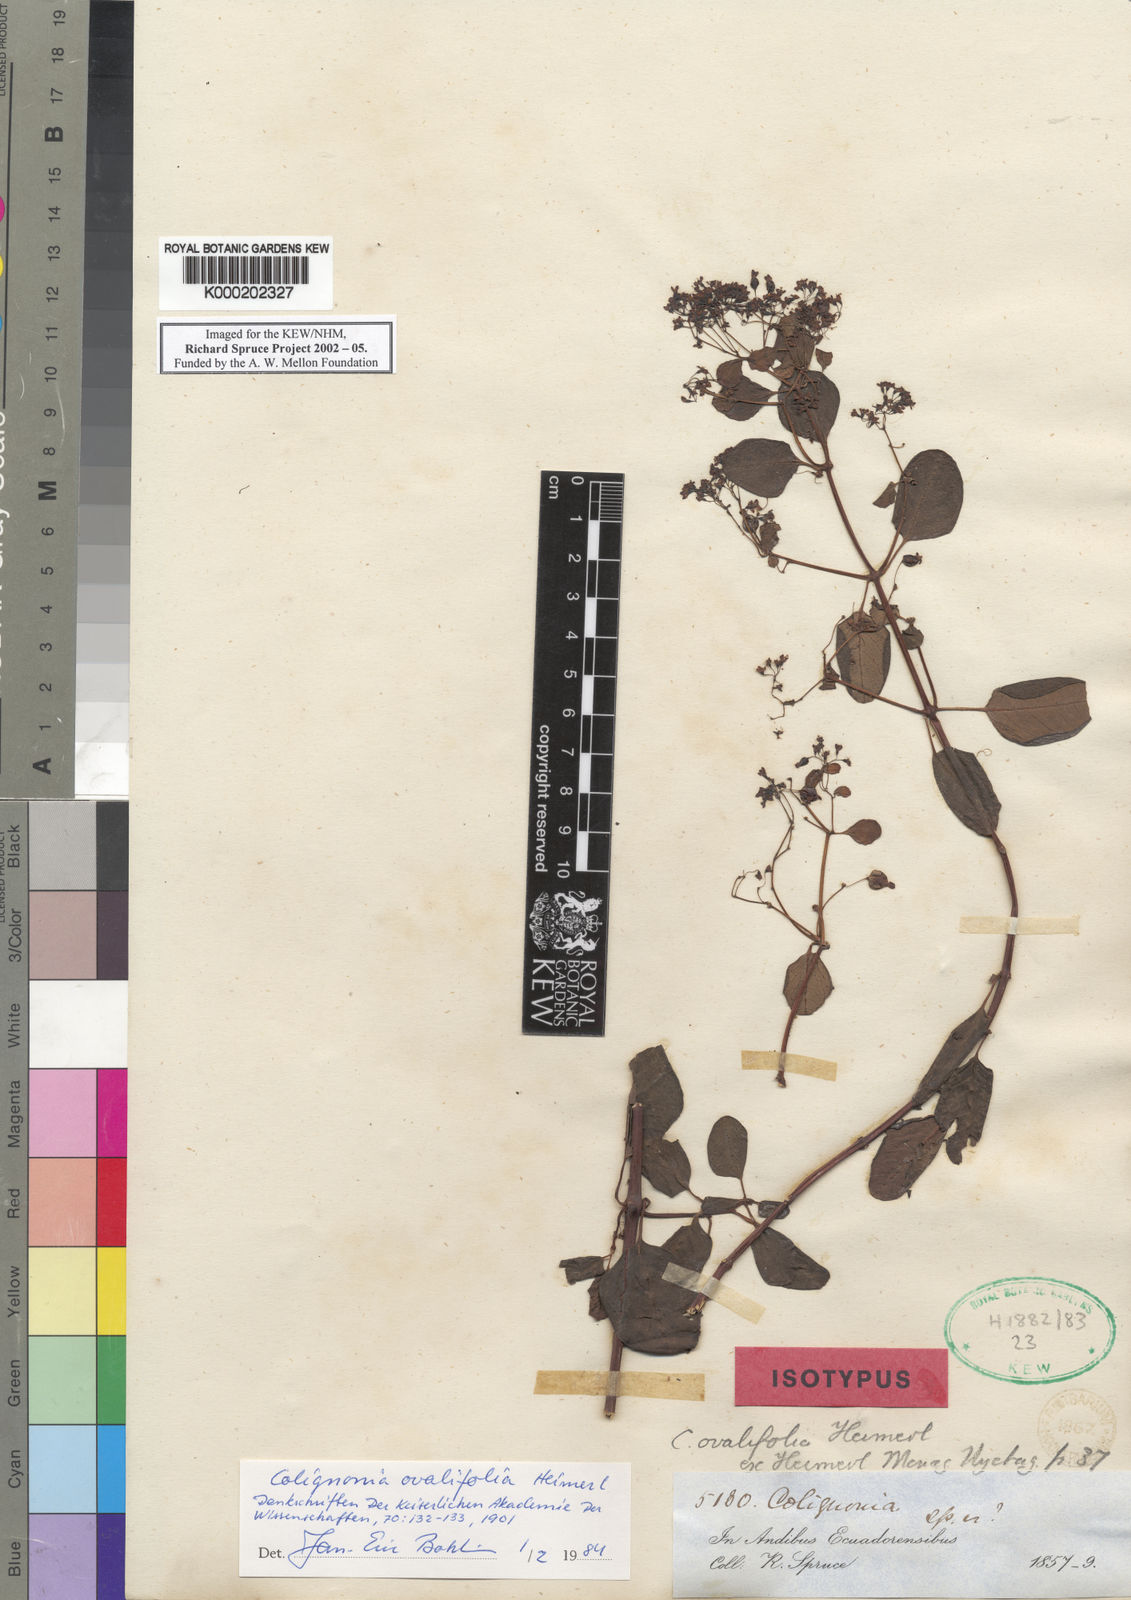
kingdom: Plantae
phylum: Tracheophyta
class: Magnoliopsida
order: Caryophyllales
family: Nyctaginaceae
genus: Colignonia
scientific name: Colignonia ovalifolia
